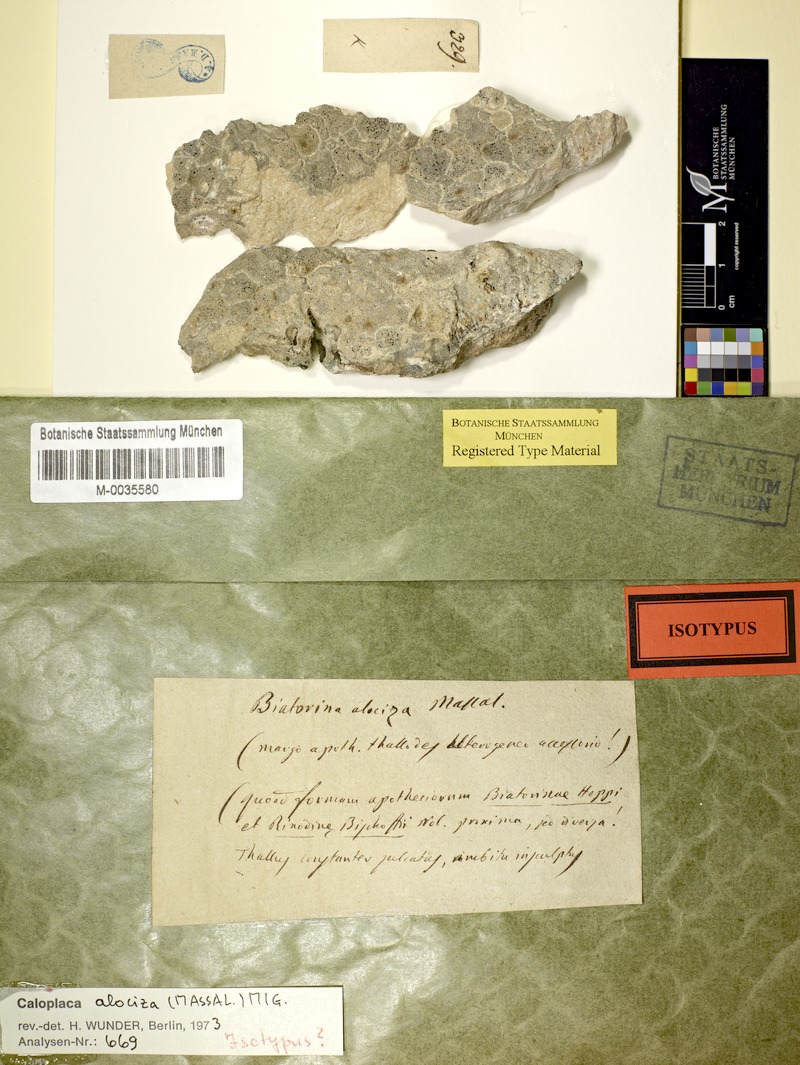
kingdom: Fungi
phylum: Ascomycota
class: Lecanoromycetes
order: Teloschistales
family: Teloschistaceae
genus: Pyrenodesmia
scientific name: Pyrenodesmia alociza
